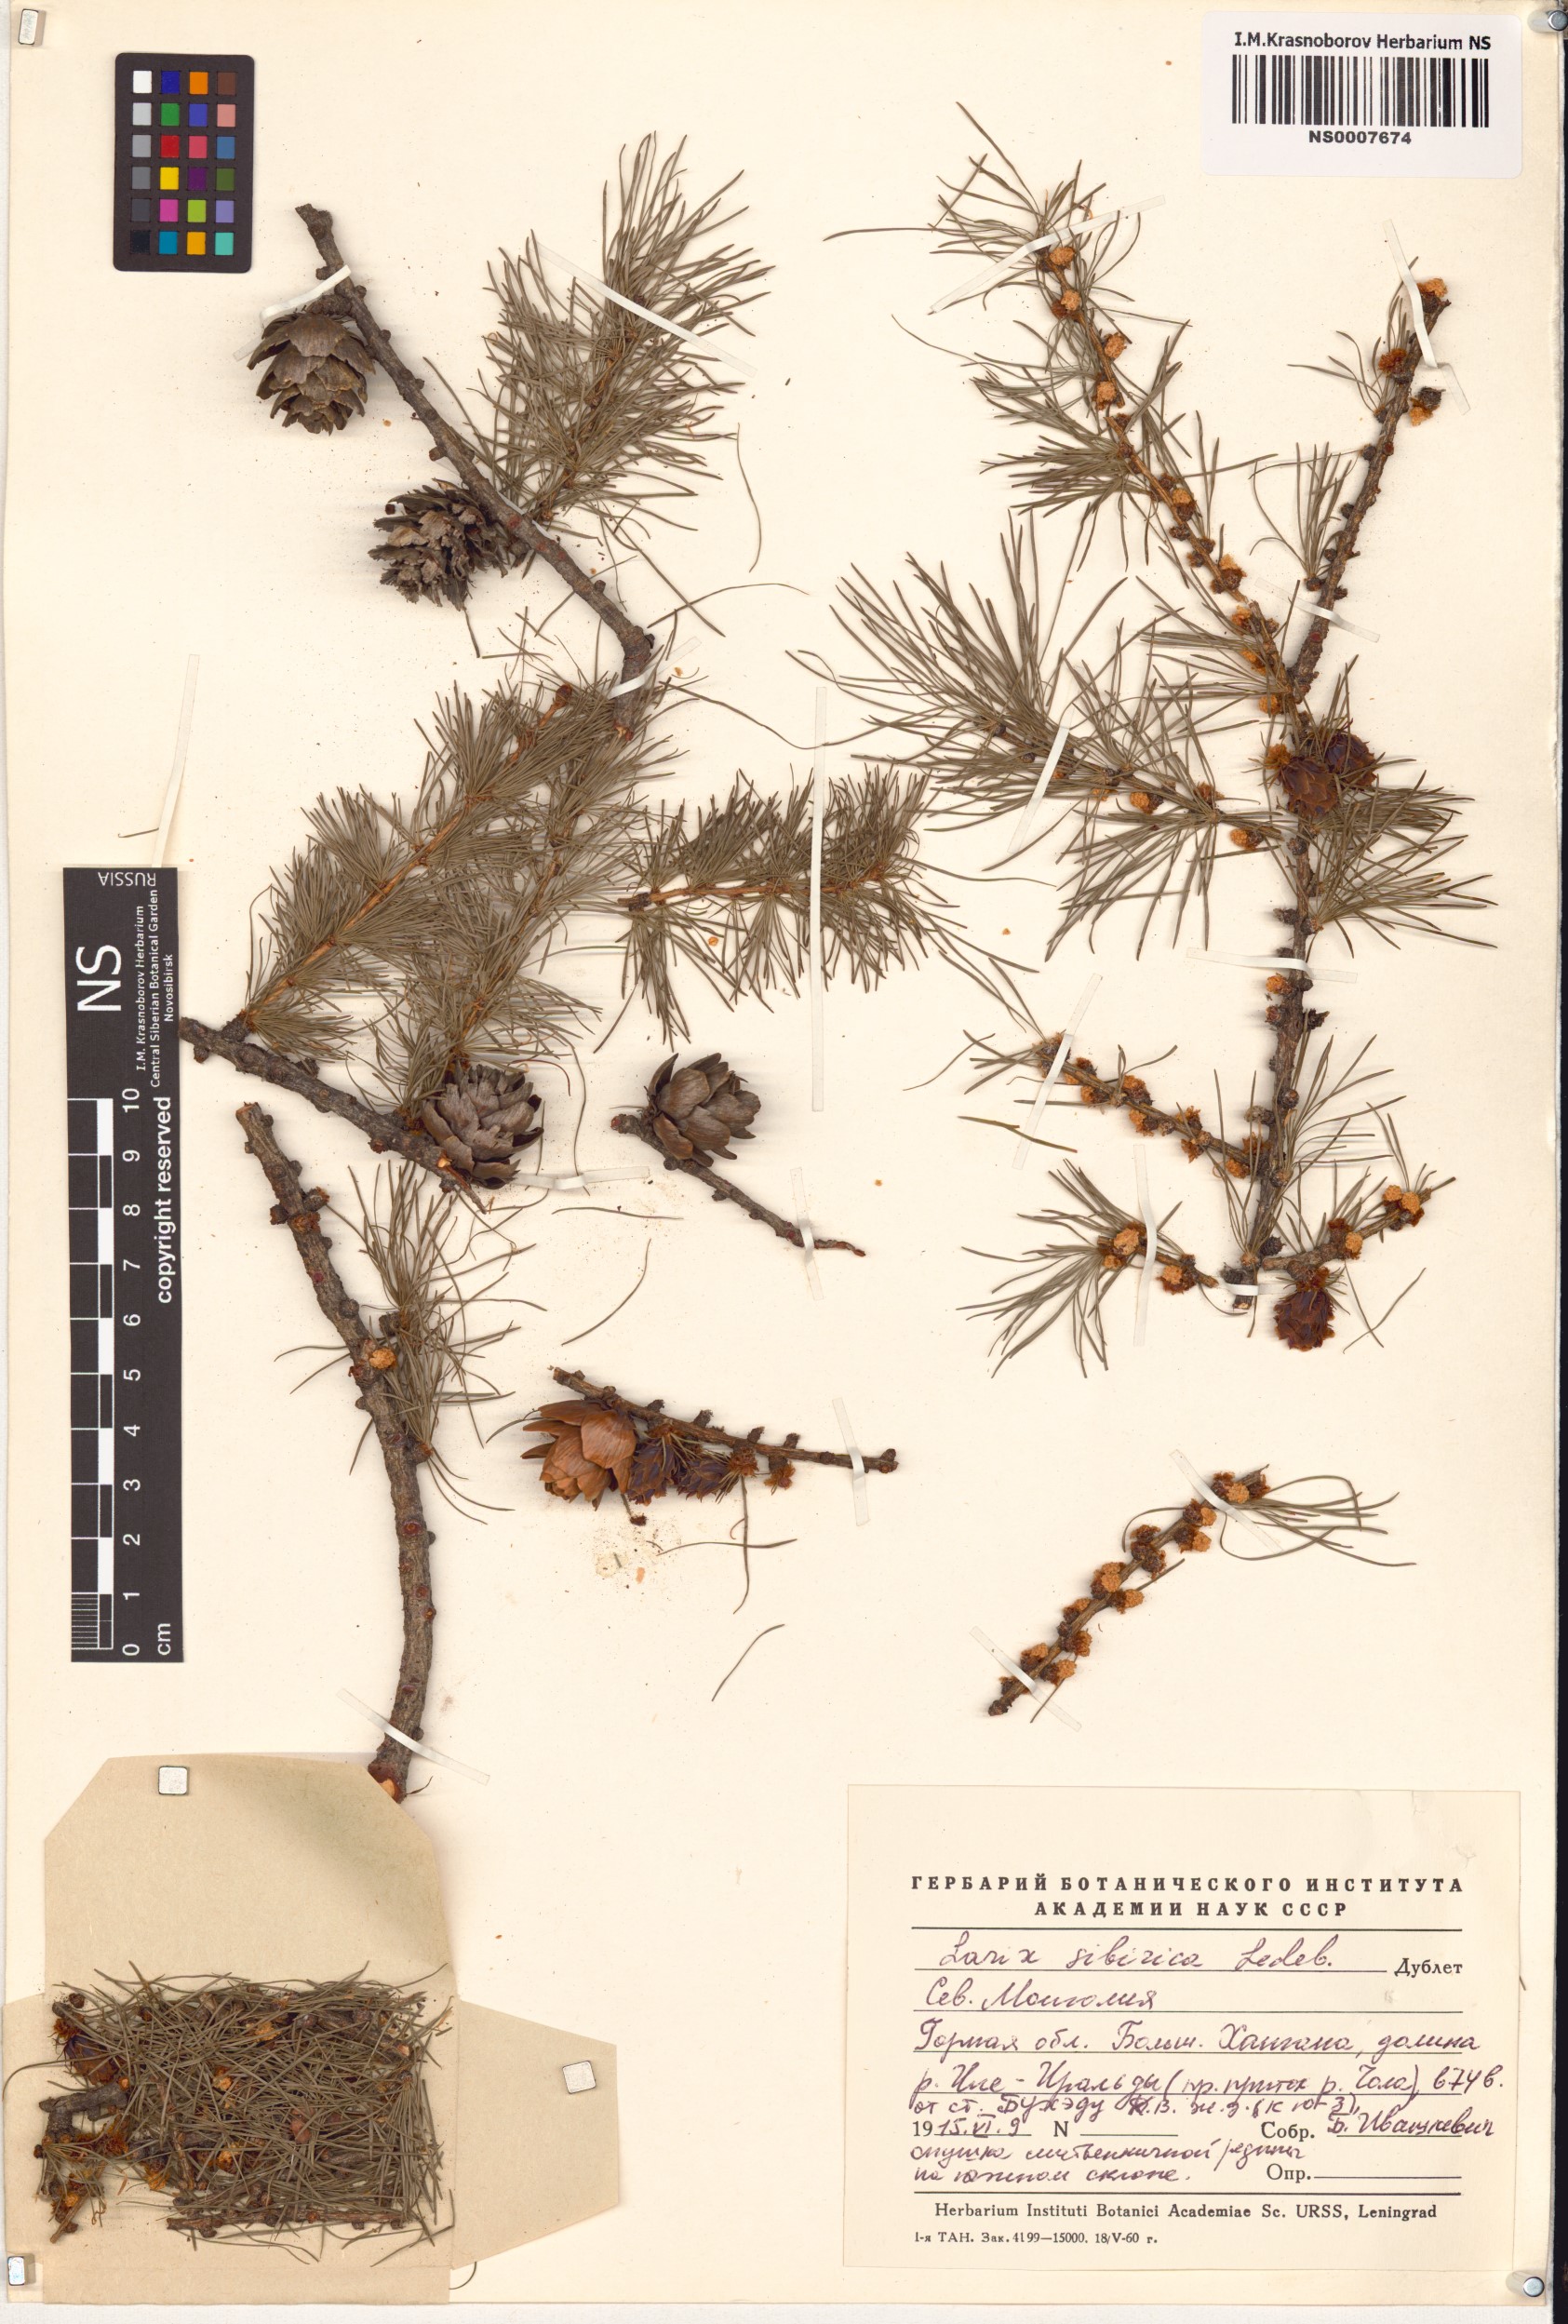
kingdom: Plantae
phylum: Tracheophyta
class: Pinopsida
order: Pinales
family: Pinaceae
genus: Larix
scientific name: Larix sibirica
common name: Siberian larch
